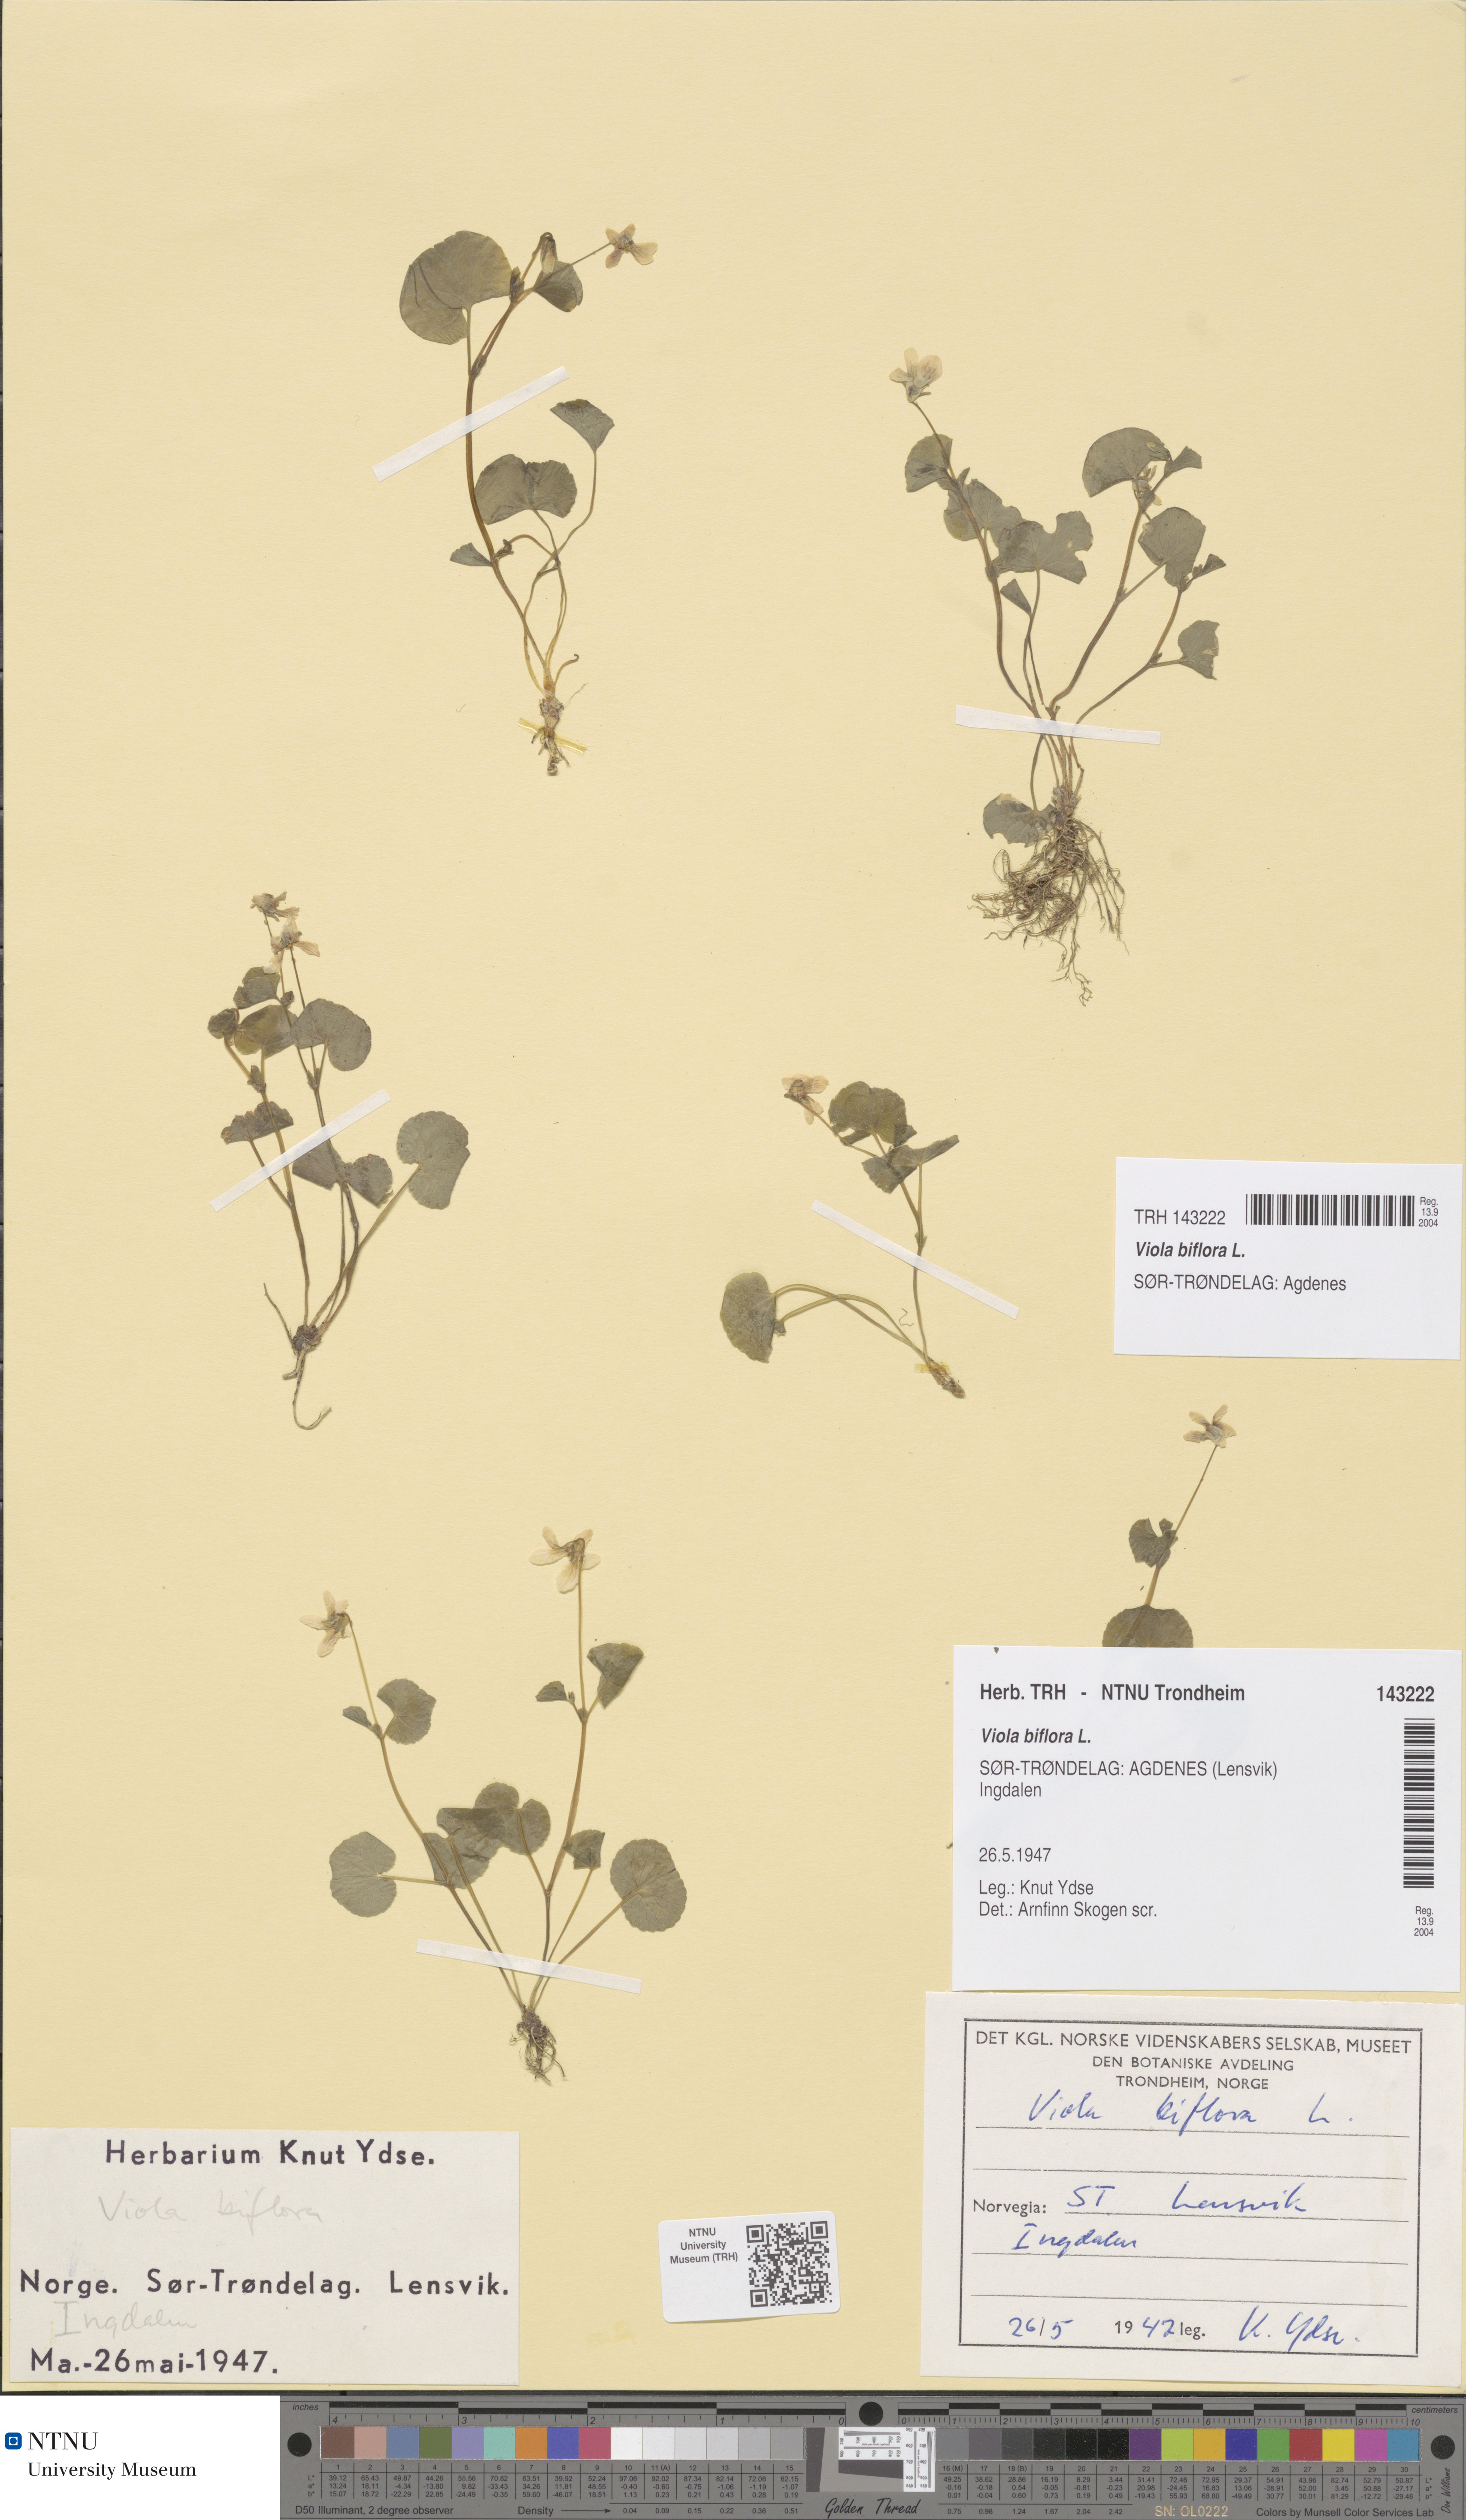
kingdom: Plantae
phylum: Tracheophyta
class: Magnoliopsida
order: Malpighiales
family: Violaceae
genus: Viola
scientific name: Viola biflora
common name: Alpine yellow violet
